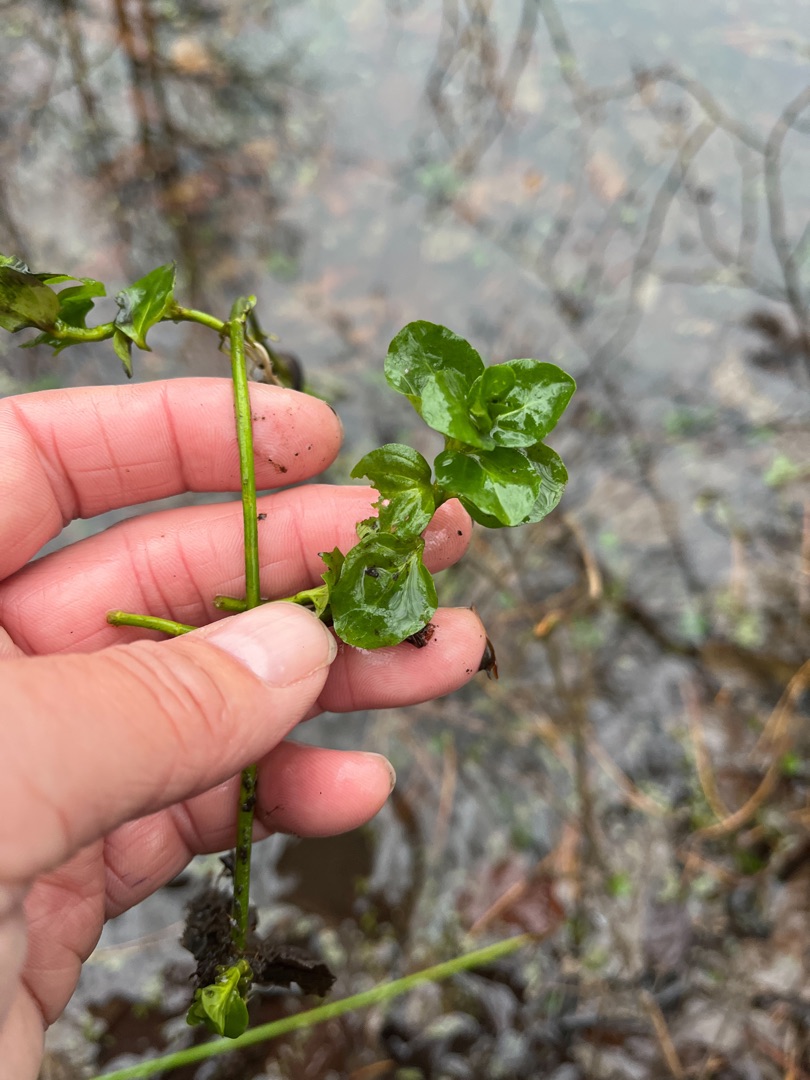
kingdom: Plantae
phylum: Tracheophyta
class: Magnoliopsida
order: Lamiales
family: Plantaginaceae
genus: Veronica
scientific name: Veronica beccabunga
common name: Tykbladet ærenpris
